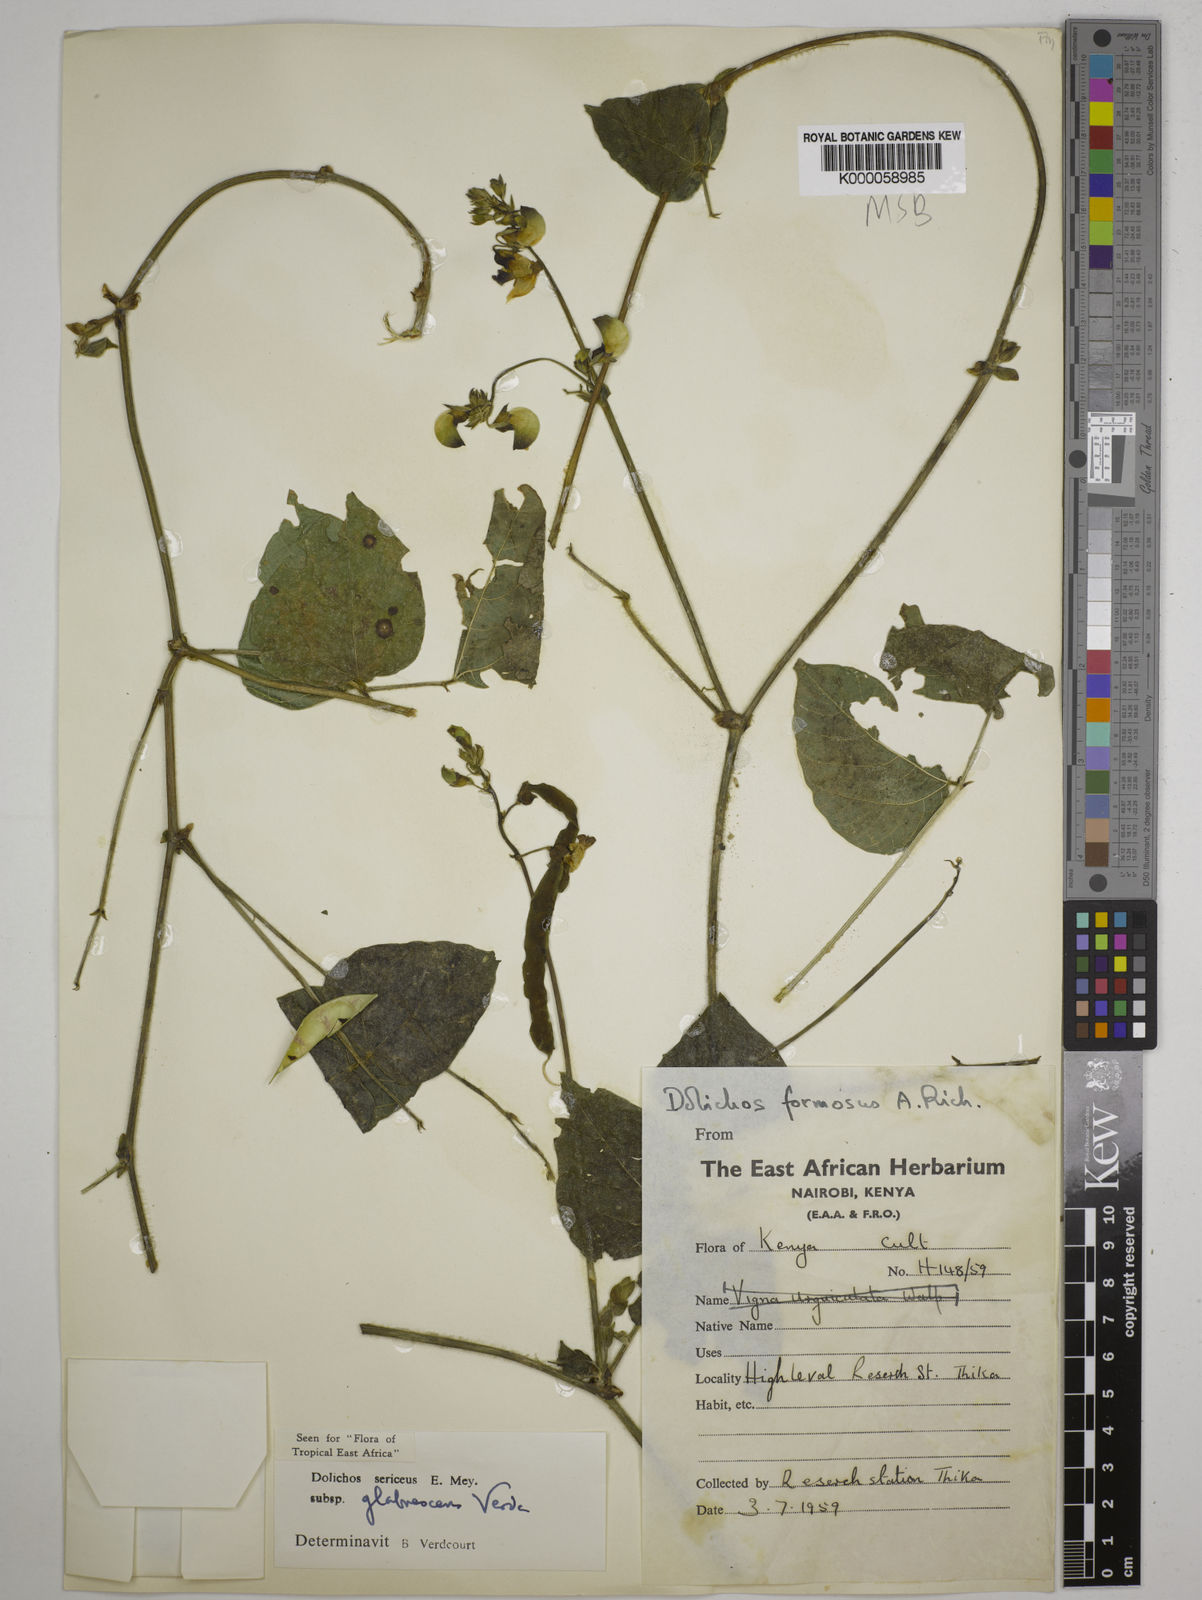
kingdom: Plantae
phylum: Tracheophyta
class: Magnoliopsida
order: Fabales
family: Fabaceae
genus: Dolichos
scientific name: Dolichos sericeus
